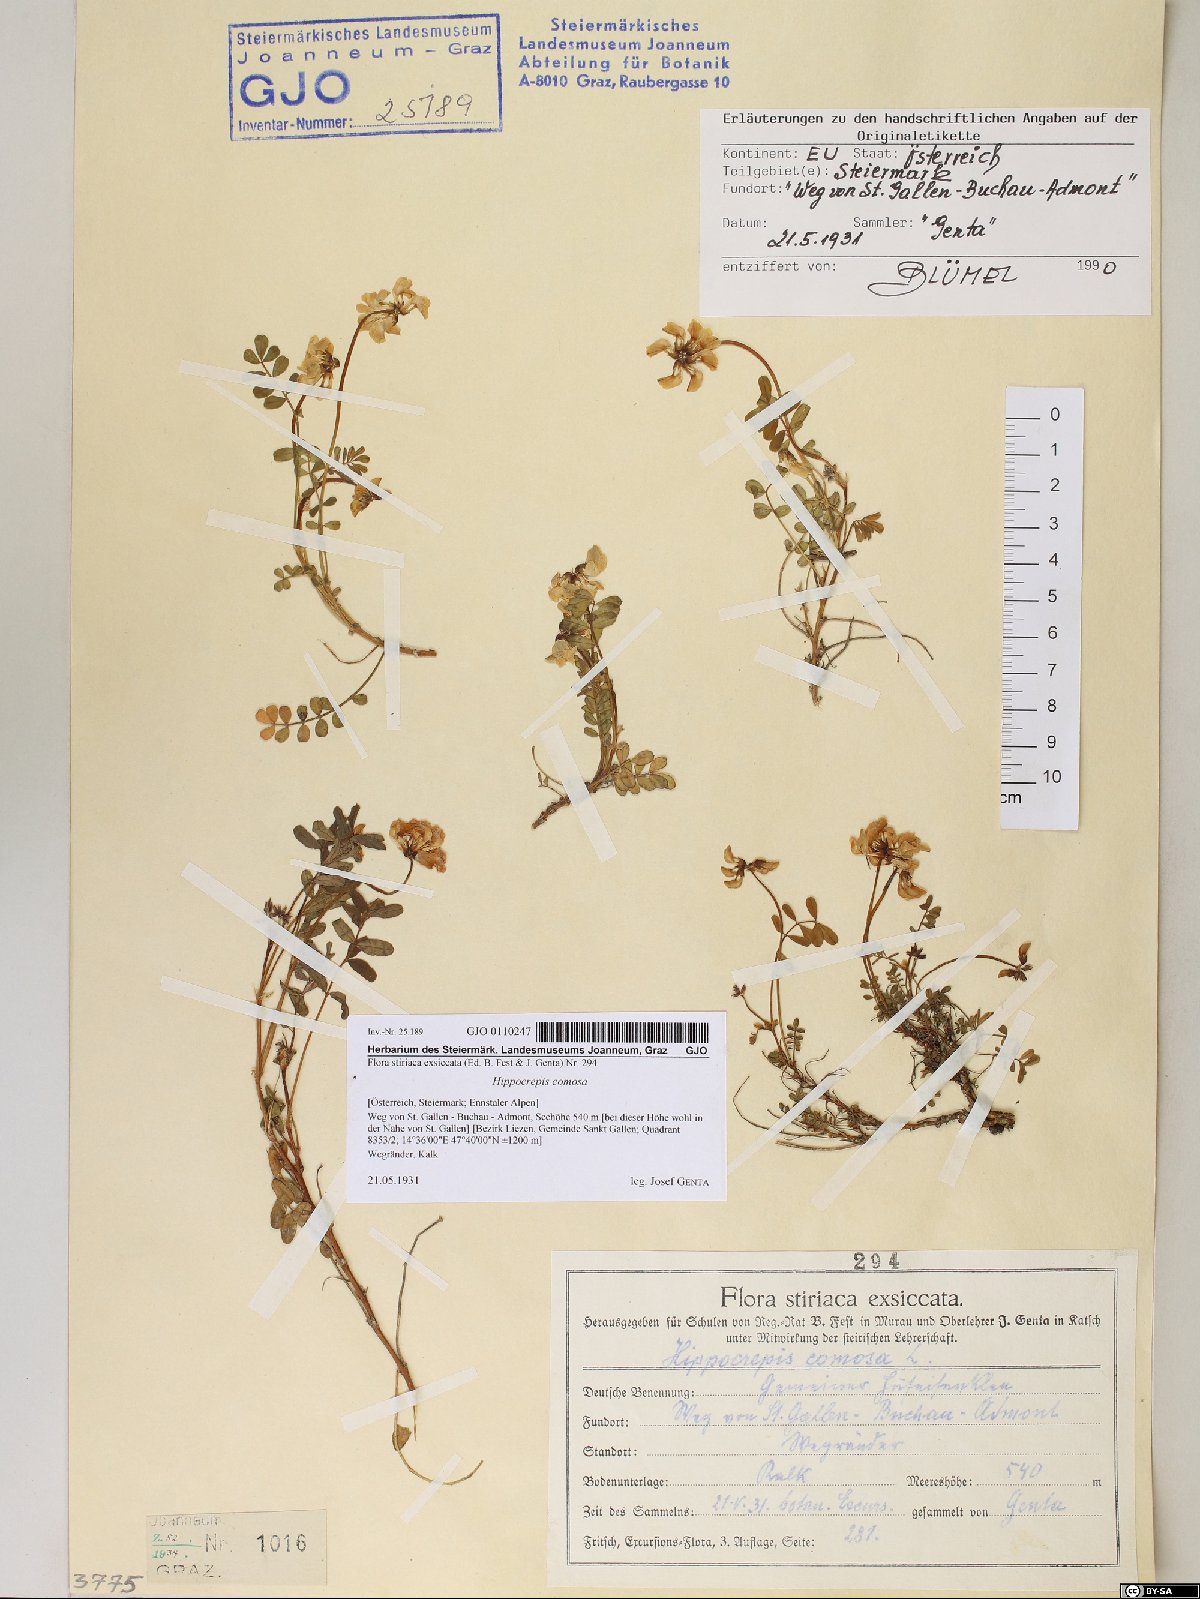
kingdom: Plantae
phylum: Tracheophyta
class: Magnoliopsida
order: Fabales
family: Fabaceae
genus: Hippocrepis
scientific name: Hippocrepis comosa
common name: Horseshoe vetch
